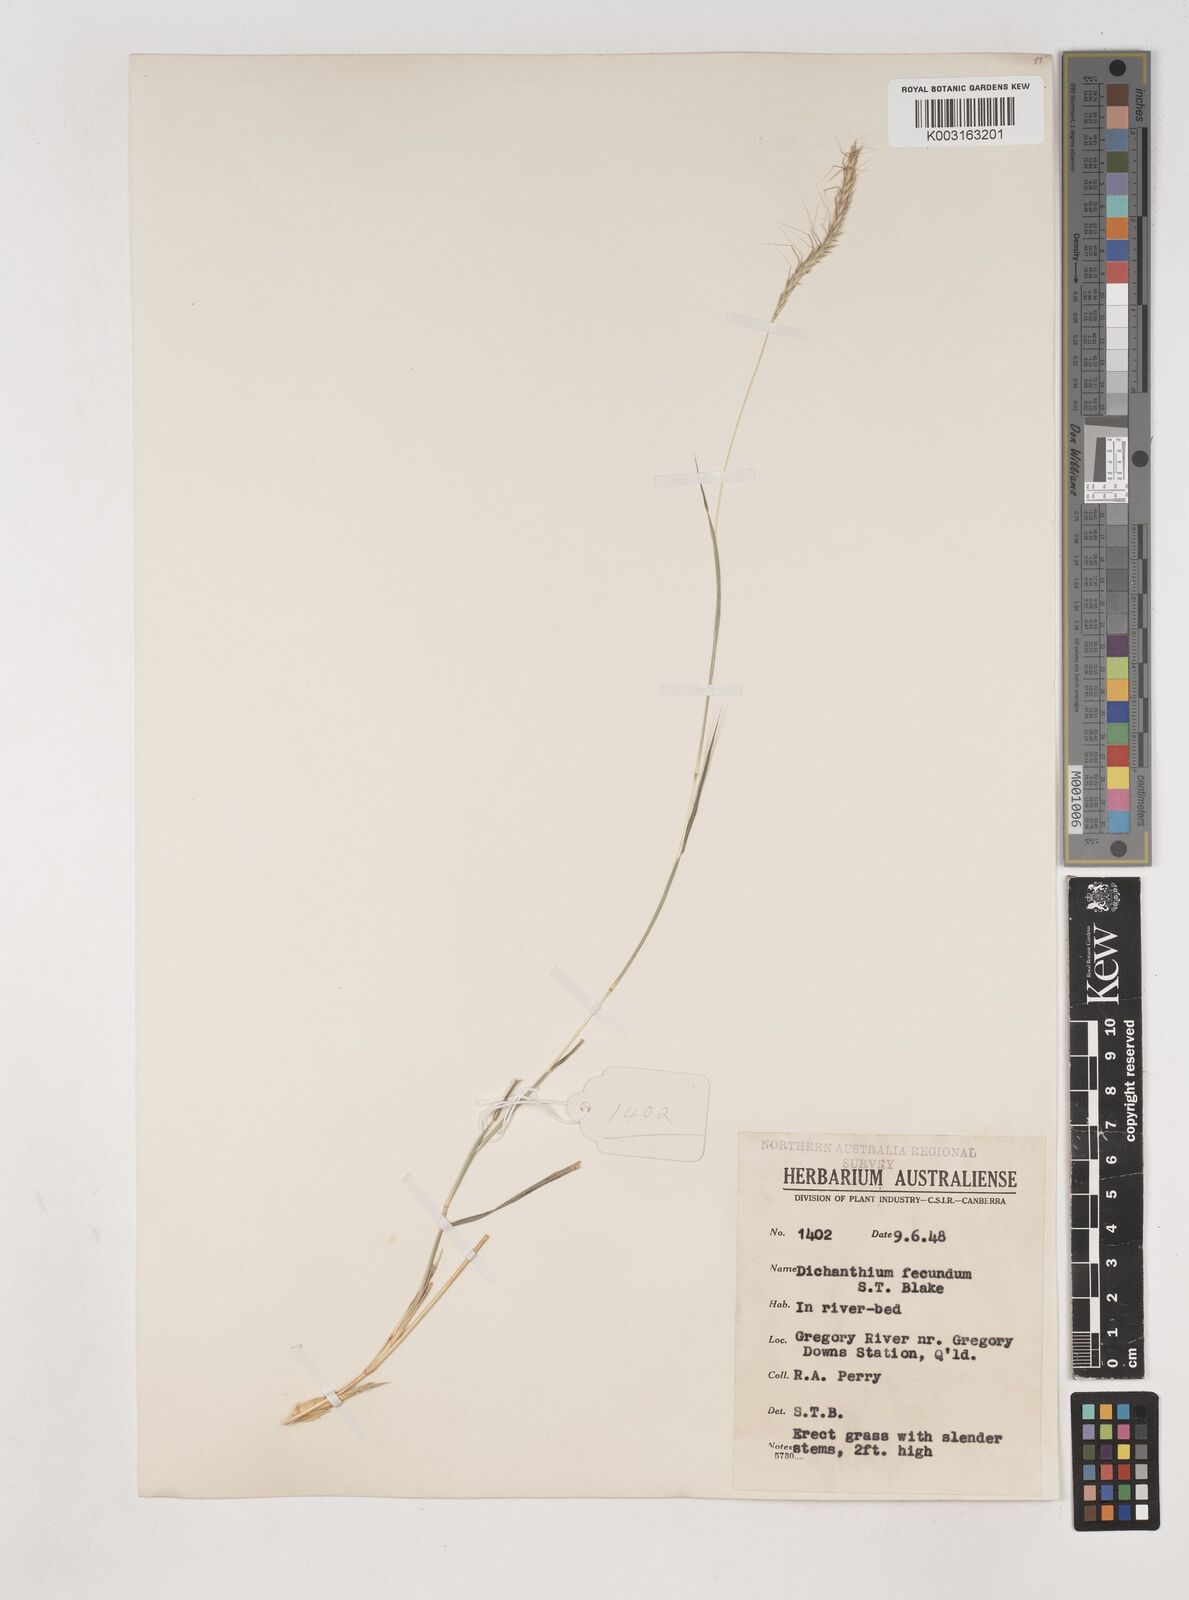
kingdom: Plantae
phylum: Tracheophyta
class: Liliopsida
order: Poales
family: Poaceae
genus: Dichanthium
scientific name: Dichanthium fecundum
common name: Bundle-bundle
